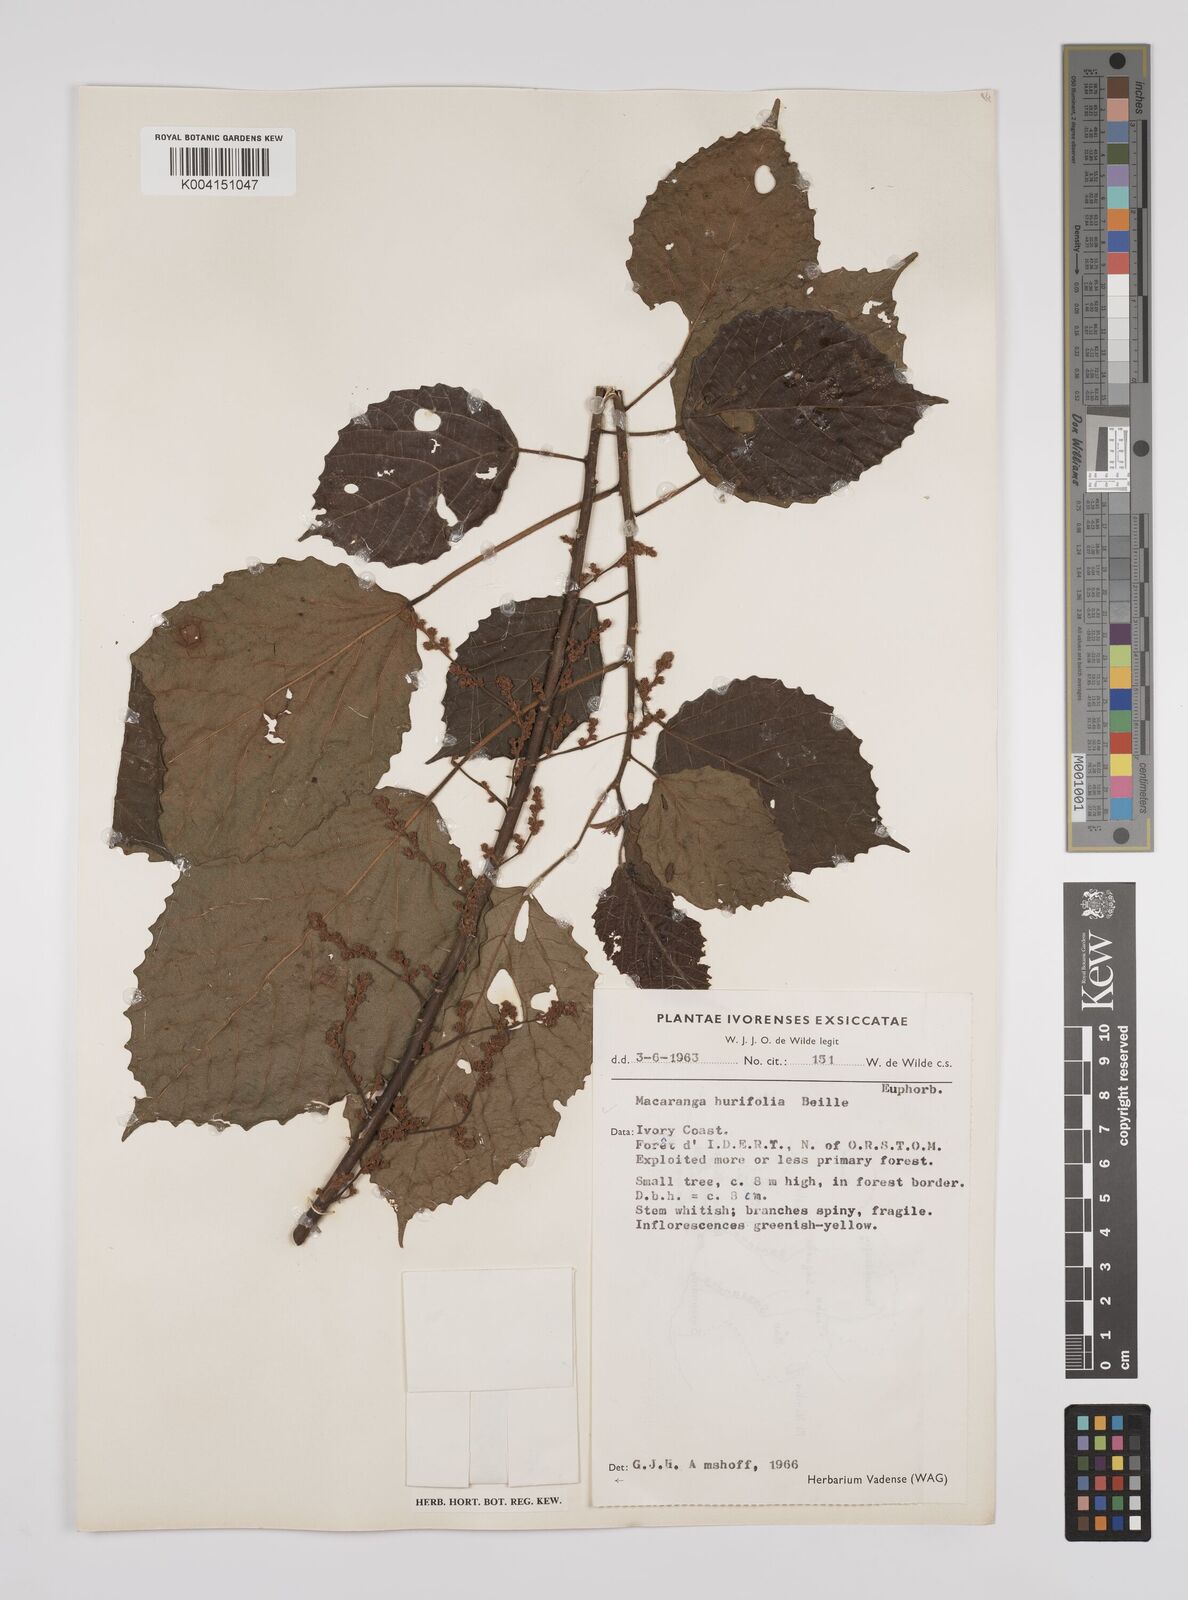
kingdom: Plantae
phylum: Tracheophyta
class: Magnoliopsida
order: Malpighiales
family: Euphorbiaceae
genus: Macaranga
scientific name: Macaranga hurifolia
